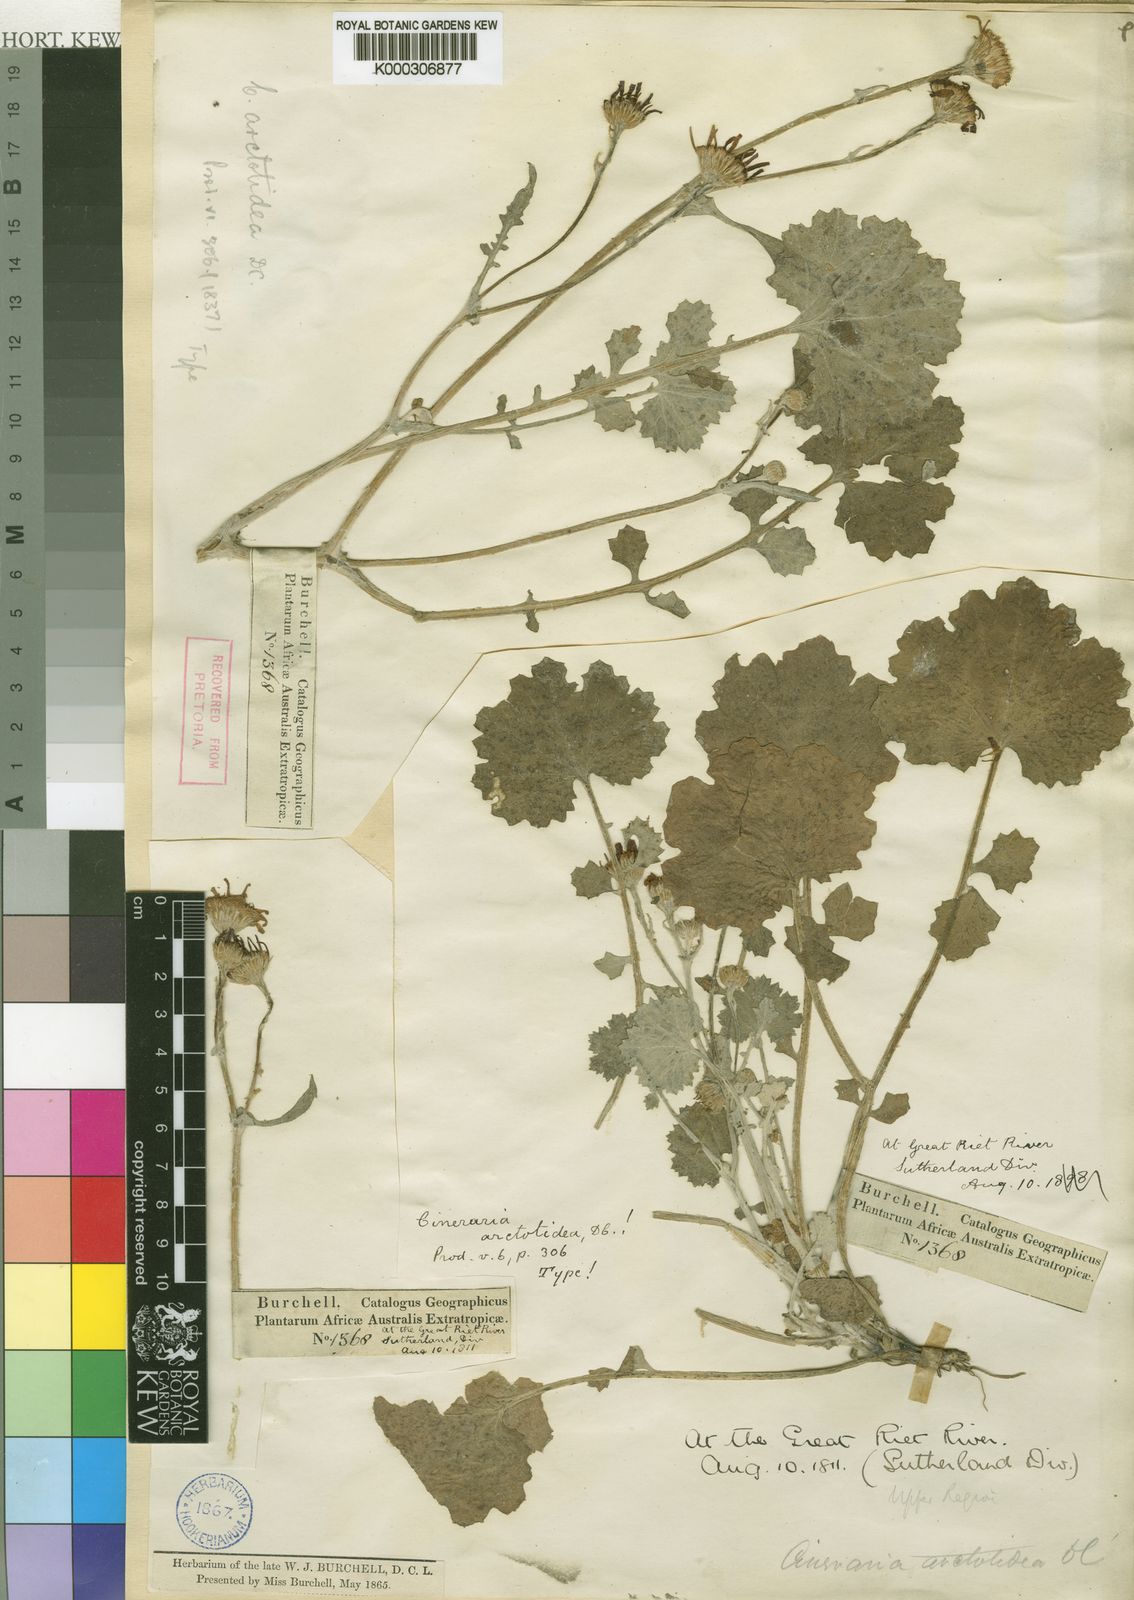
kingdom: Plantae
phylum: Tracheophyta
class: Magnoliopsida
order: Asterales
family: Asteraceae
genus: Cineraria
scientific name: Cineraria alchemilloides
